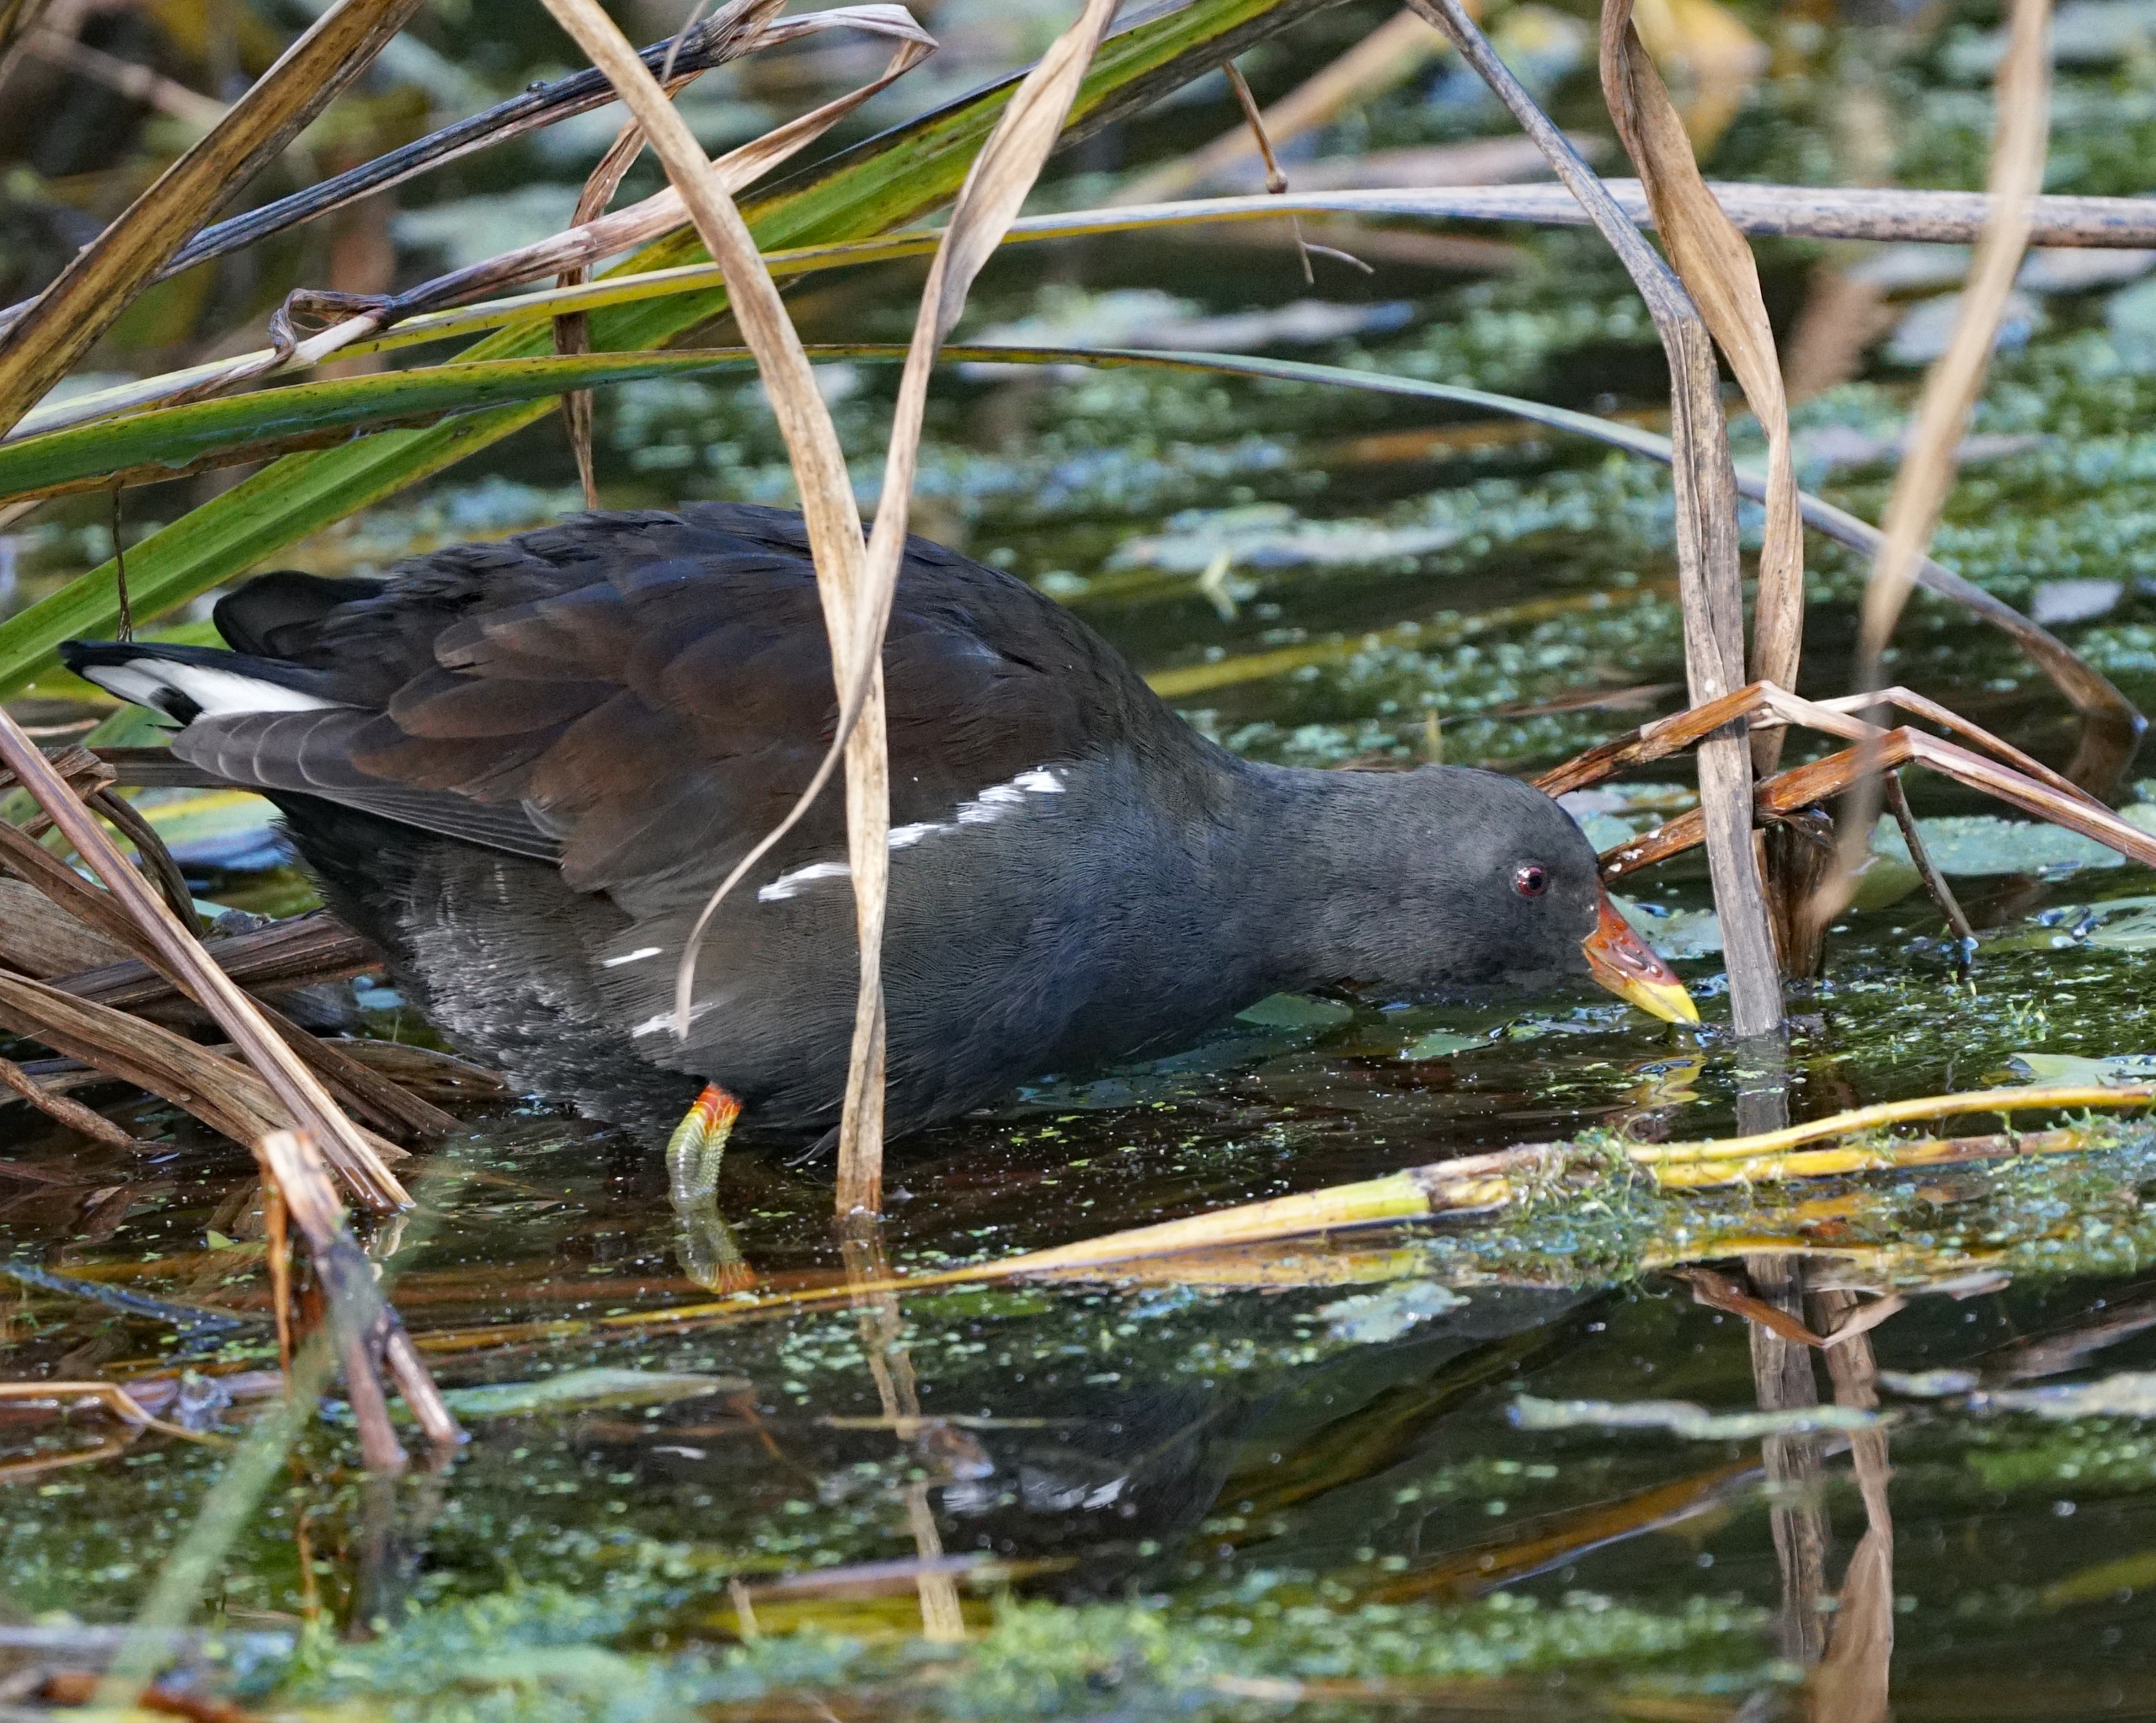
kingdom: Animalia
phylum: Chordata
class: Aves
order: Gruiformes
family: Rallidae
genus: Gallinula
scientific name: Gallinula chloropus
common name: Grønbenet rørhøne
